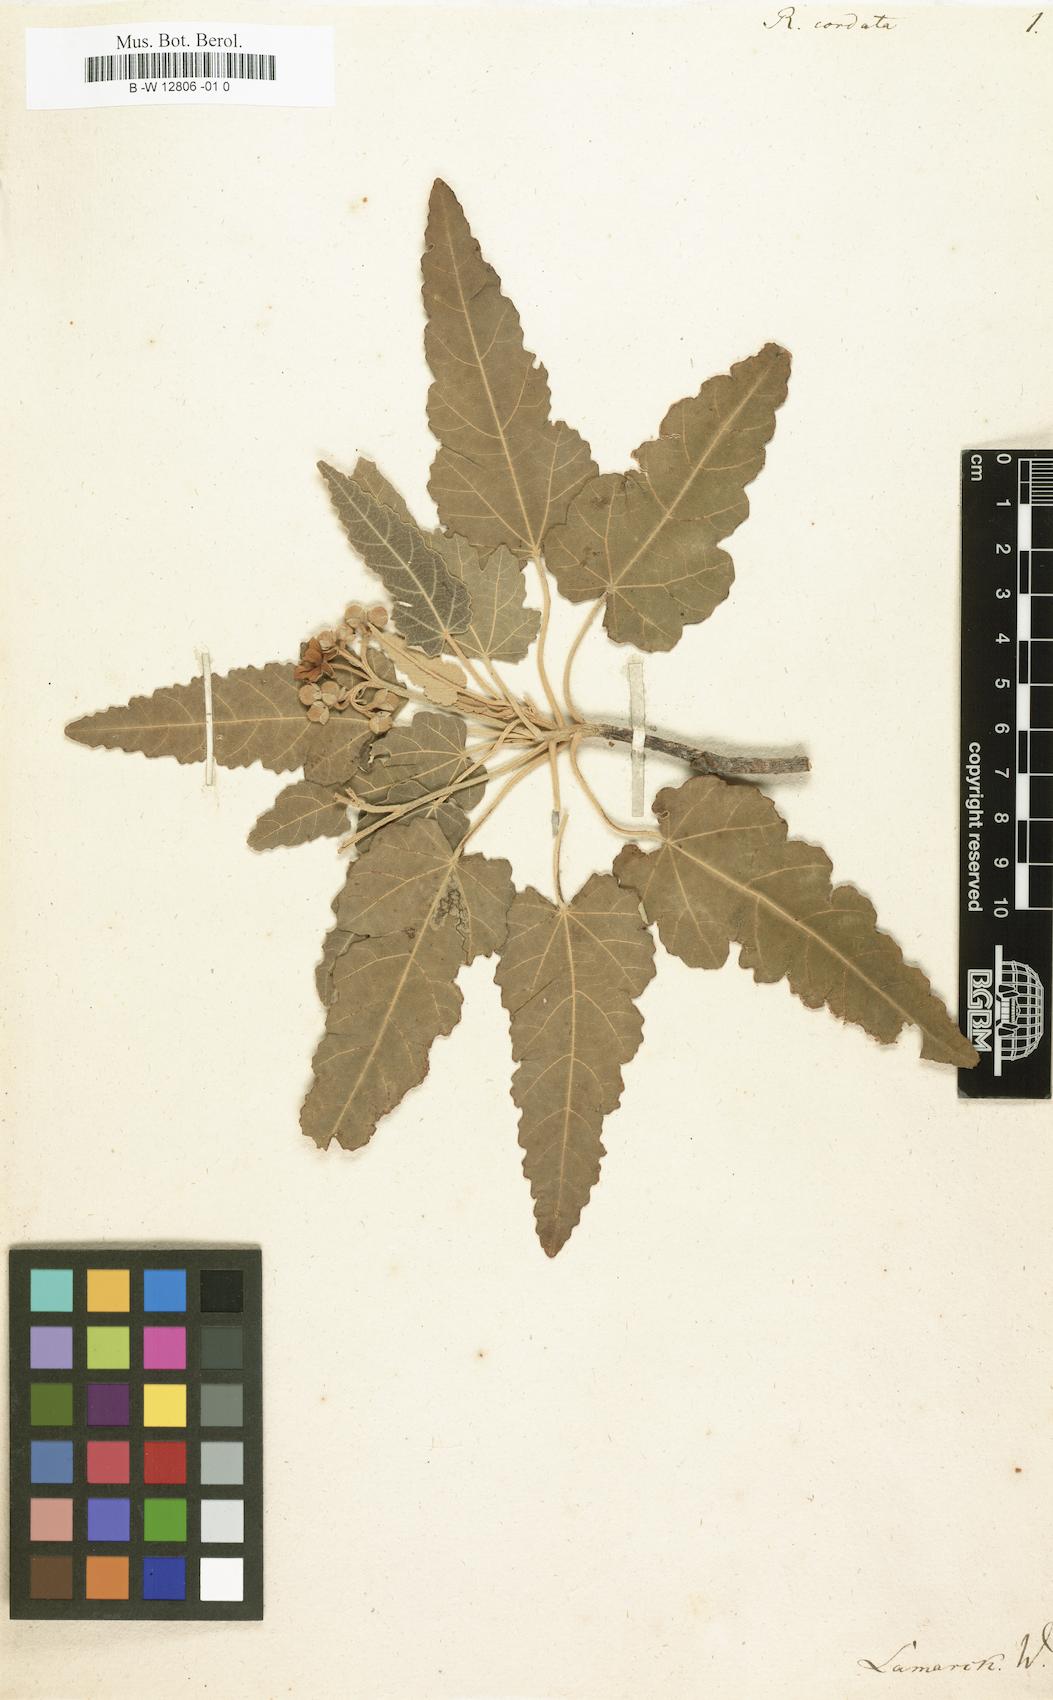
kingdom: Plantae
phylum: Tracheophyta
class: Magnoliopsida
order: Malvales
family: Malvaceae
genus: Ruizia
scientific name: Ruizia cordata
